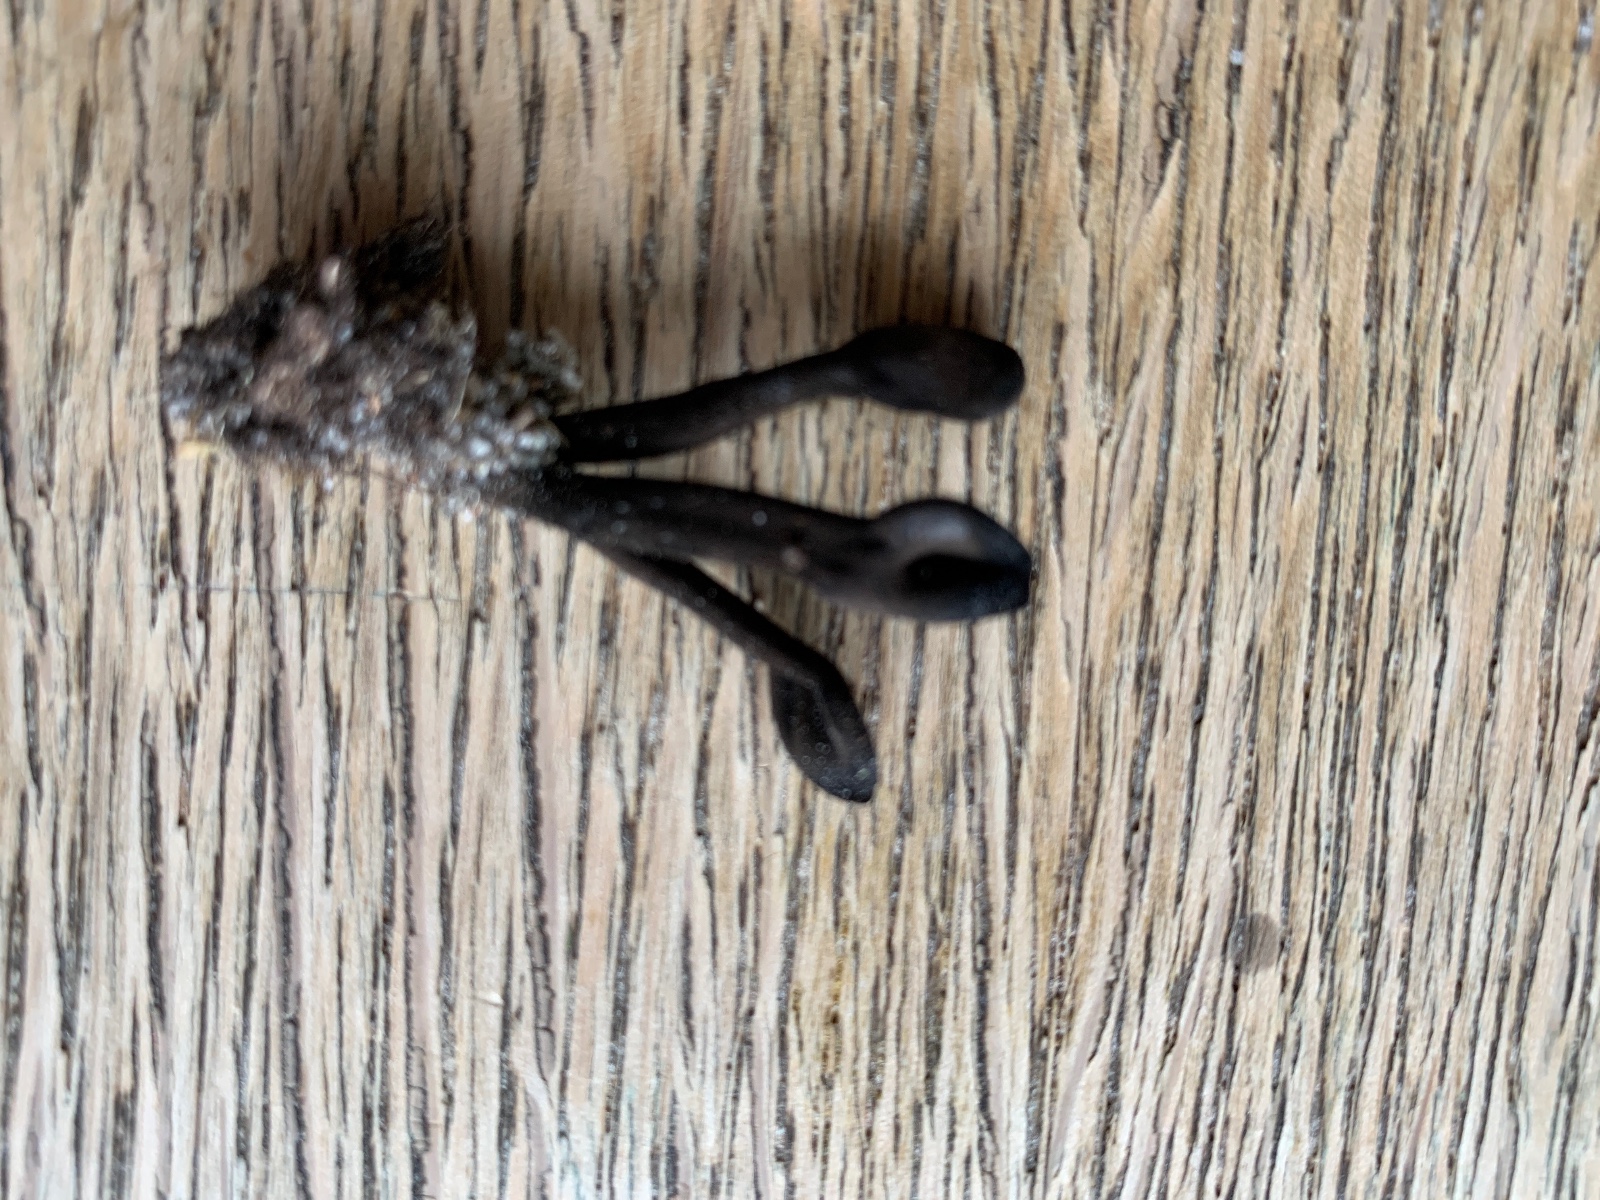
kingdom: Fungi
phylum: Ascomycota
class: Geoglossomycetes
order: Geoglossales
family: Geoglossaceae
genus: Trichoglossum
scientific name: Trichoglossum hirsutum
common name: håret jordtunge
